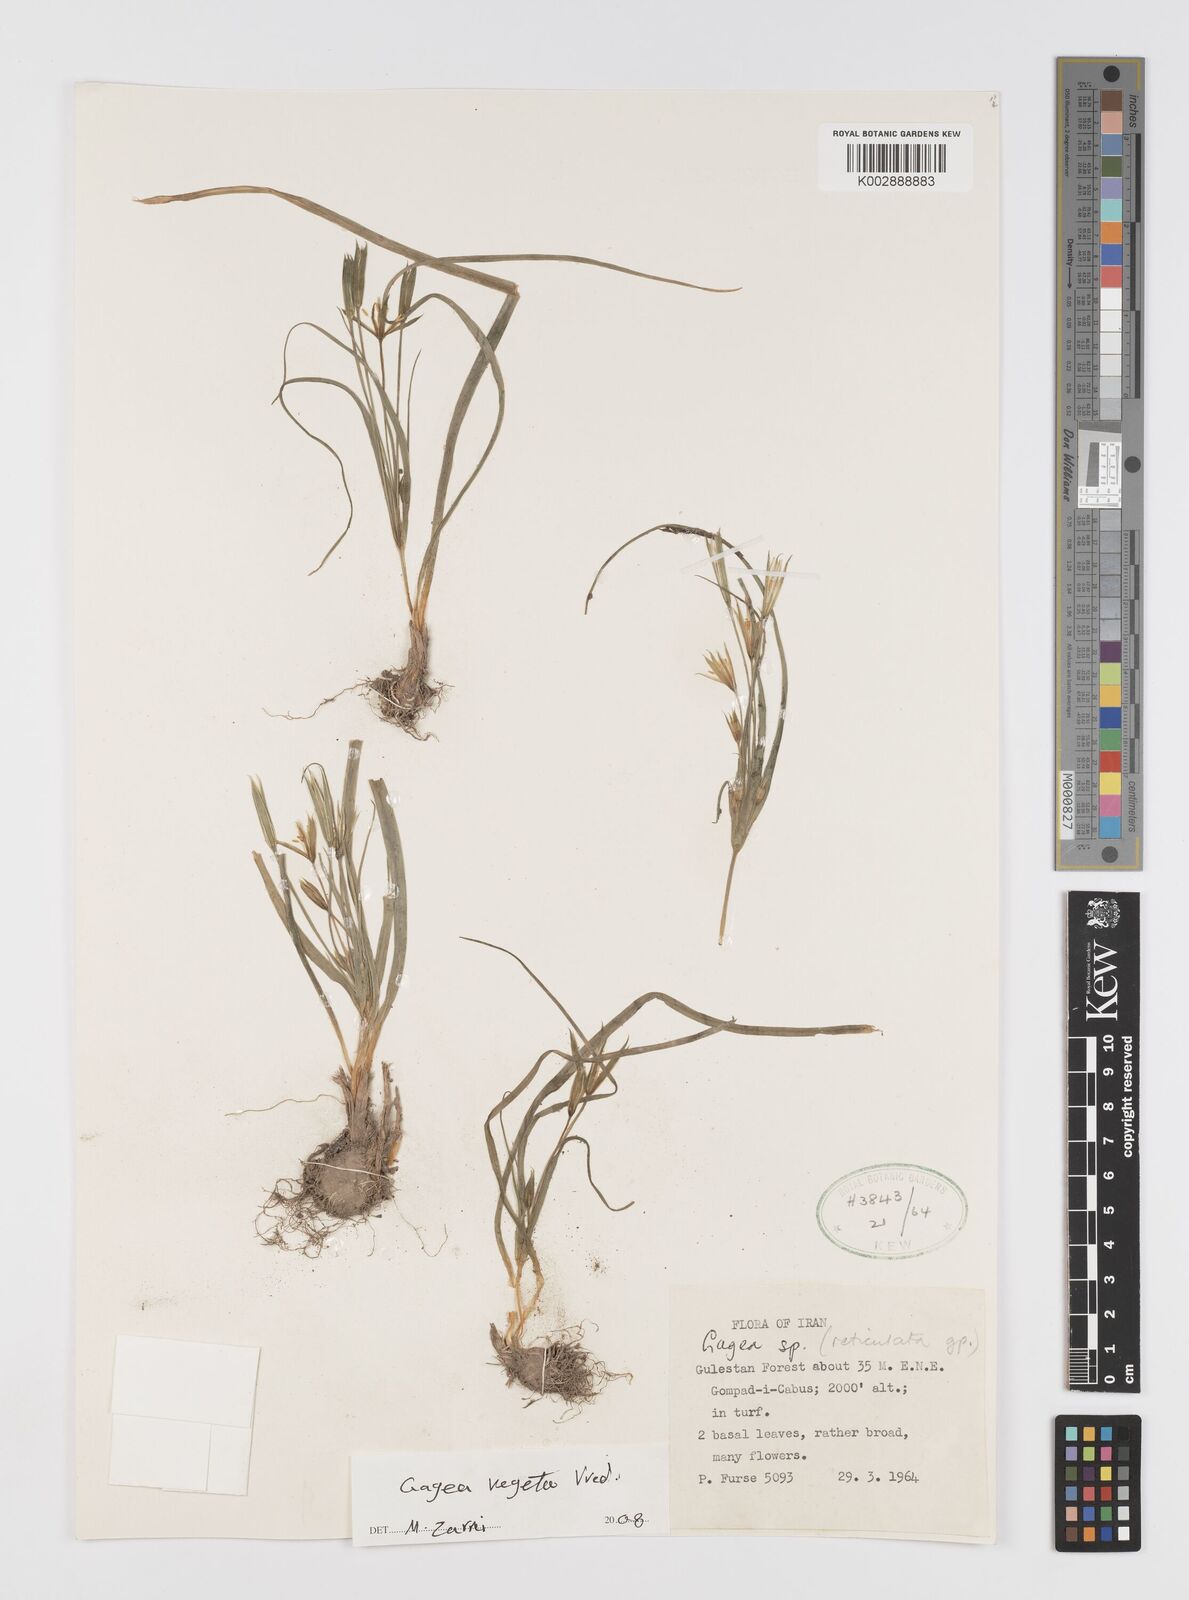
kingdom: Plantae
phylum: Tracheophyta
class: Liliopsida
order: Liliales
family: Liliaceae
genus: Gagea
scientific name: Gagea
